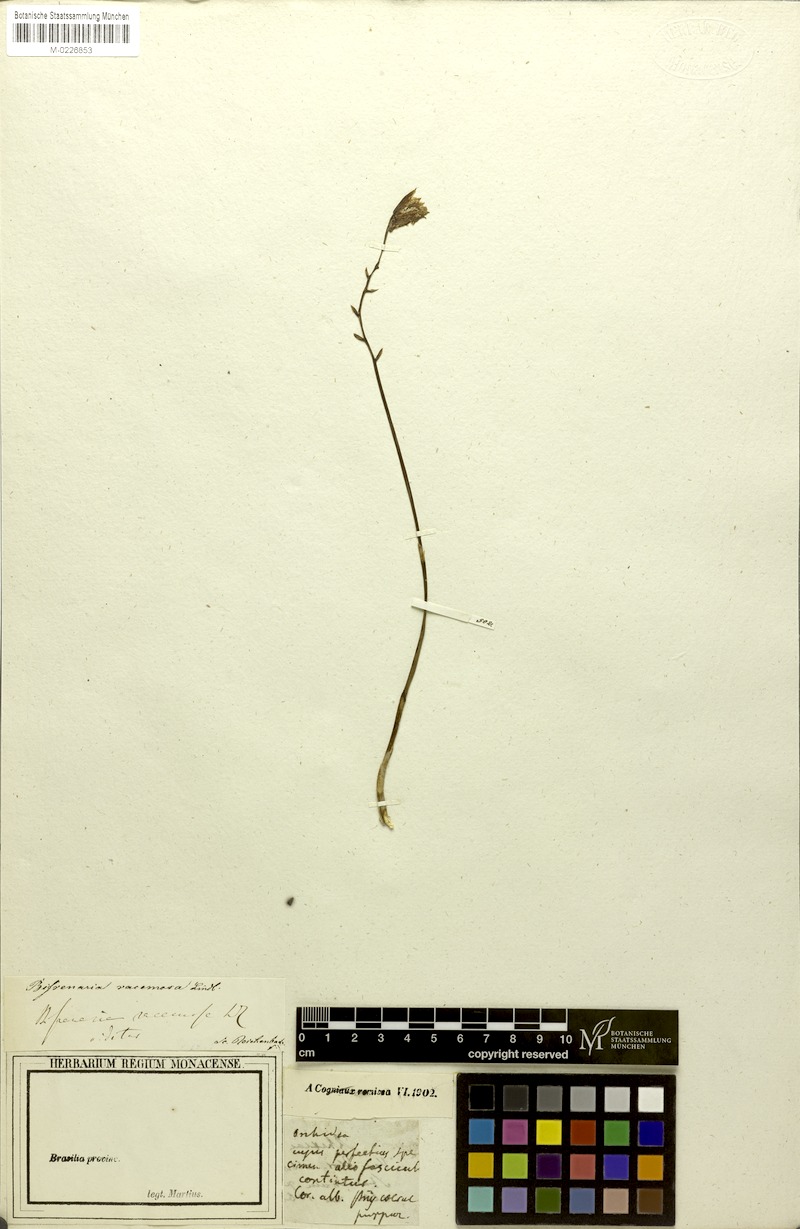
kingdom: Plantae
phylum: Tracheophyta
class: Liliopsida
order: Asparagales
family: Orchidaceae
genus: Bifrenaria
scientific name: Bifrenaria racemosa
